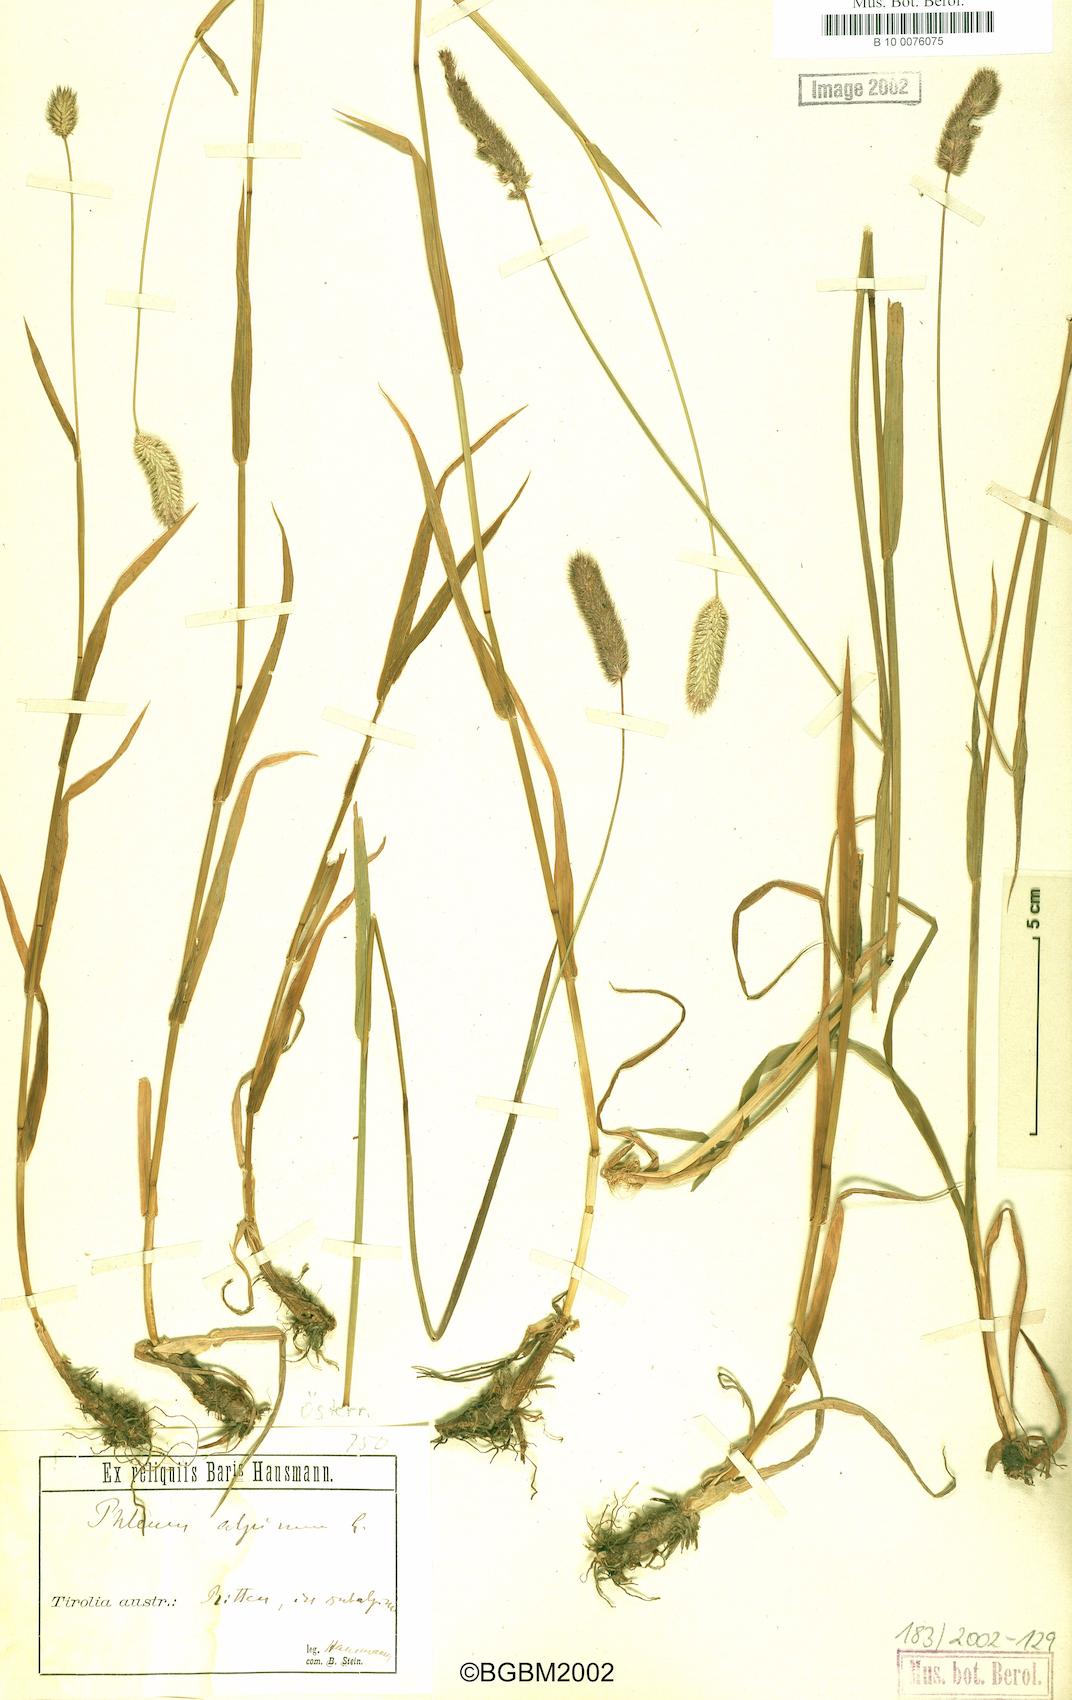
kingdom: Plantae
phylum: Tracheophyta
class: Liliopsida
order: Poales
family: Poaceae
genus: Phleum
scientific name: Phleum alpinum
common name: Alpine cat's-tail
